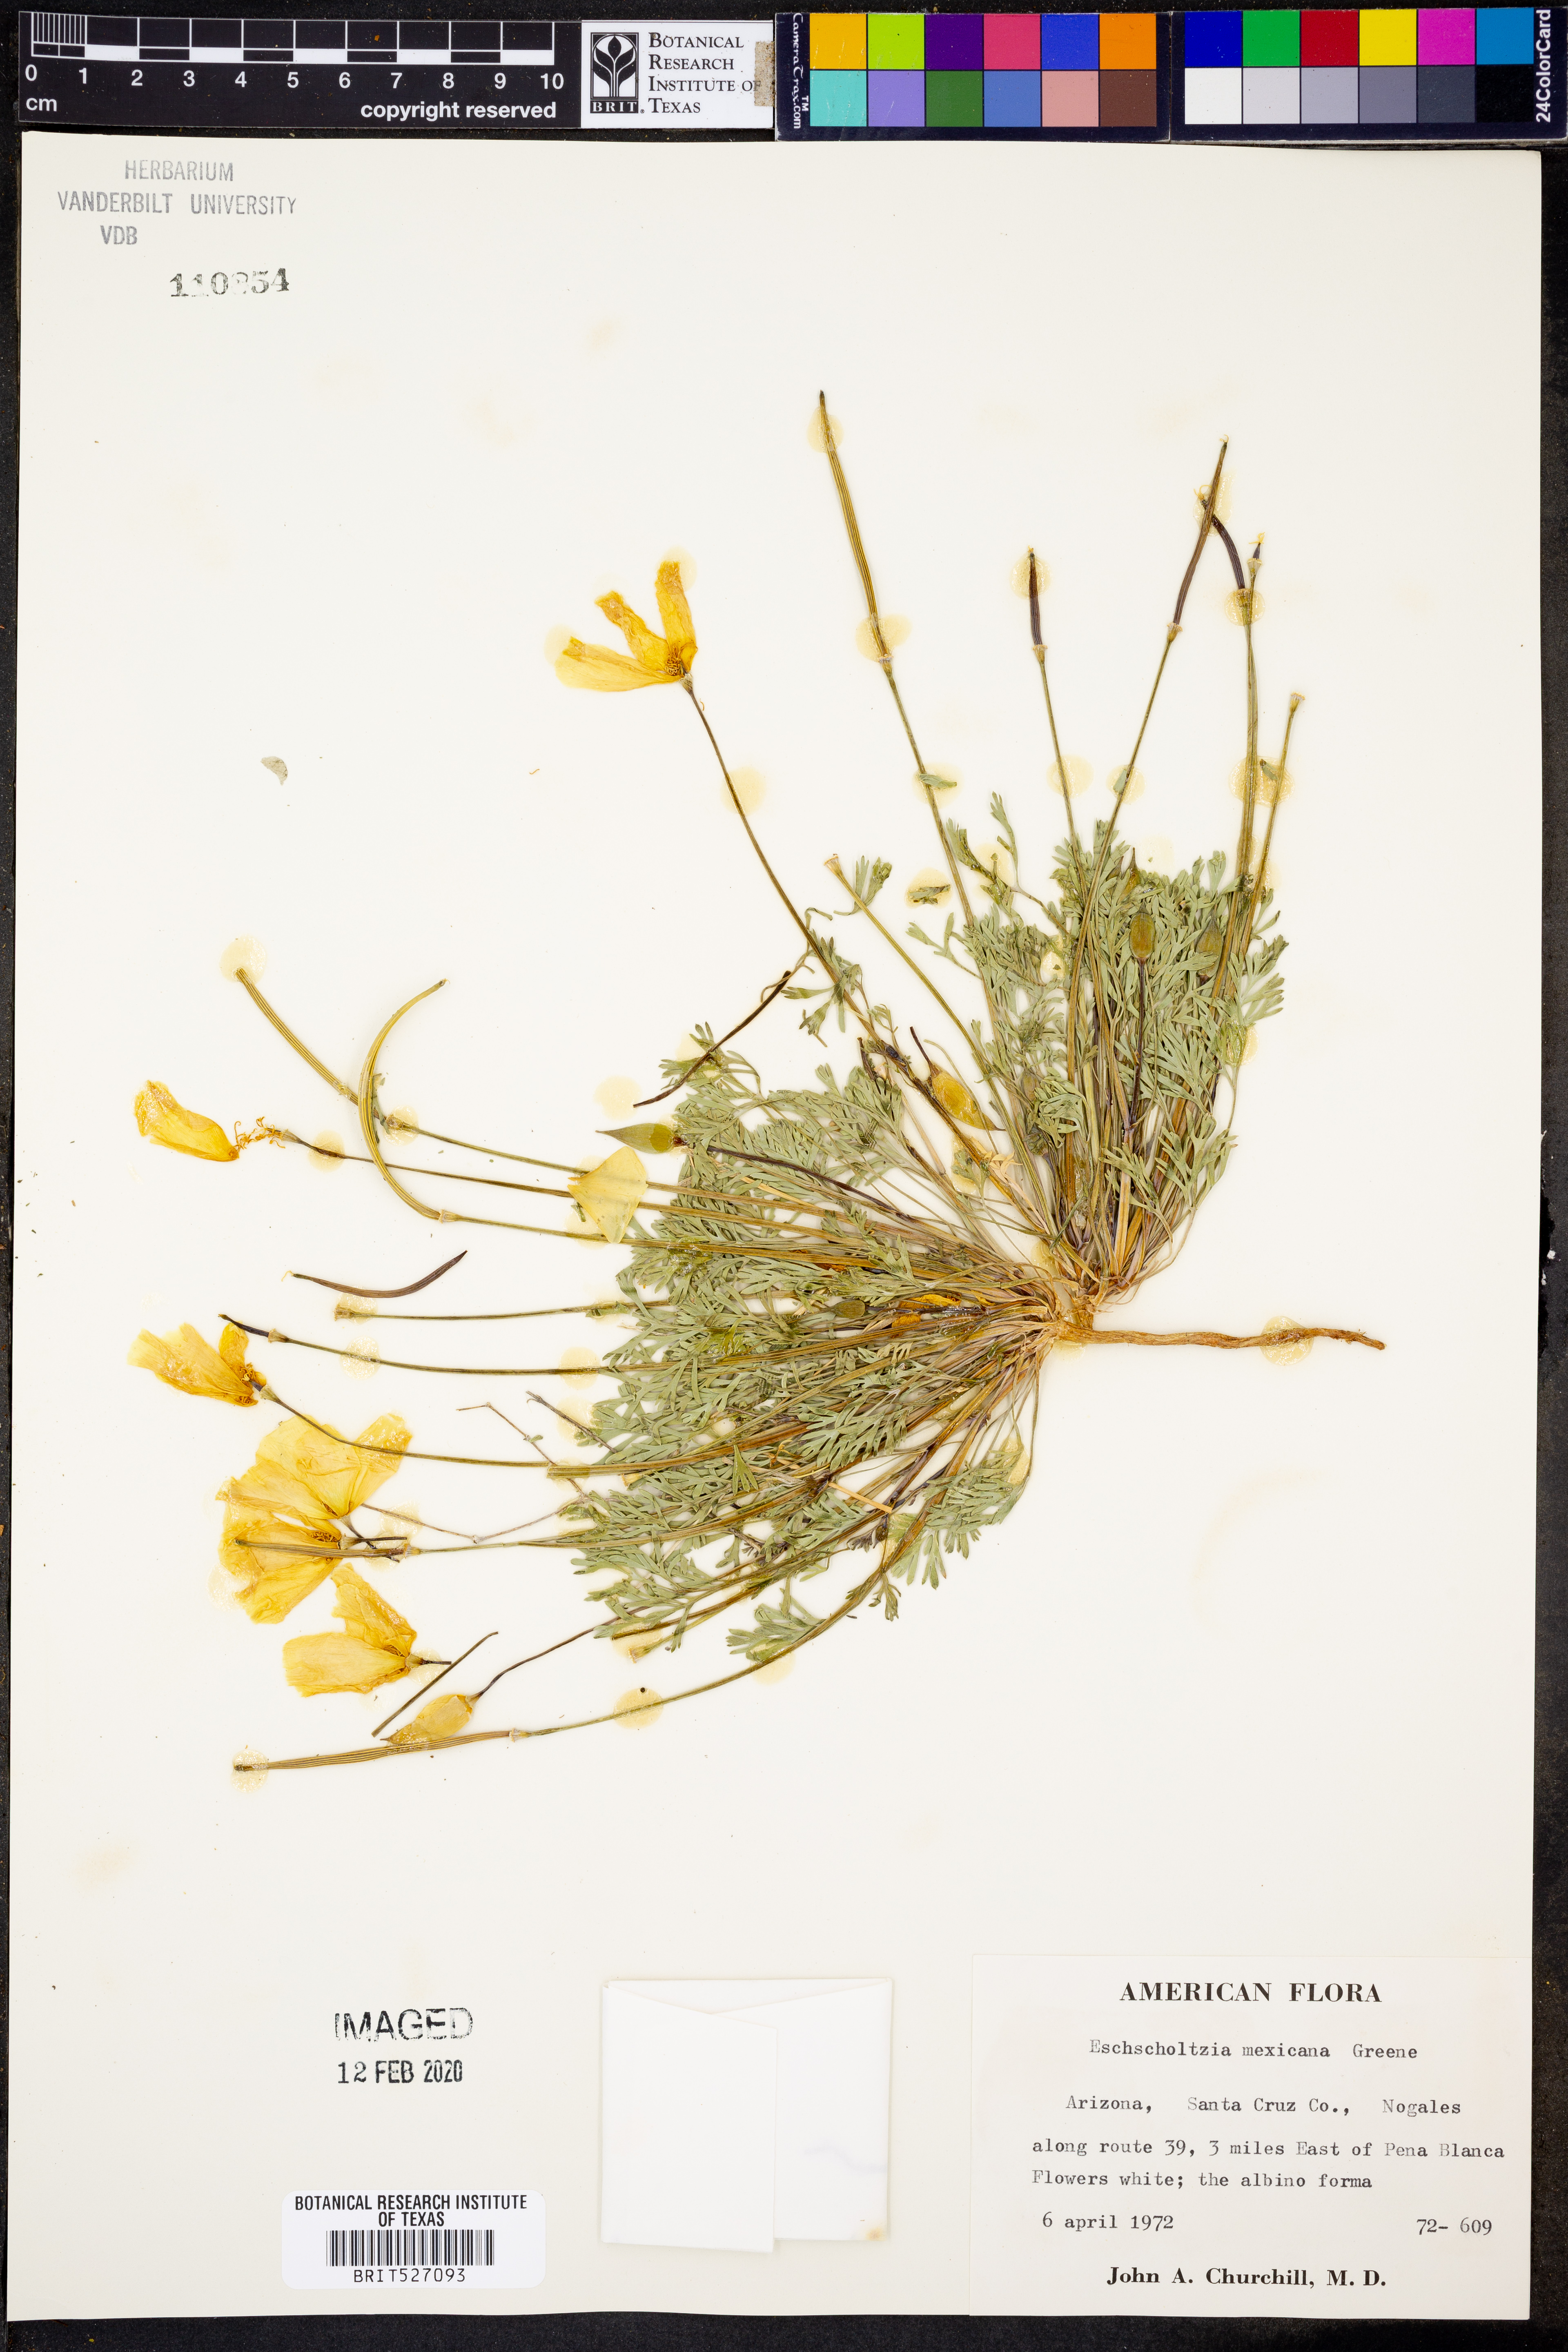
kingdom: Plantae
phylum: Tracheophyta
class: Magnoliopsida
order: Ranunculales
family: Papaveraceae
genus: Eschscholzia
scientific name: Eschscholzia californica
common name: California poppy
